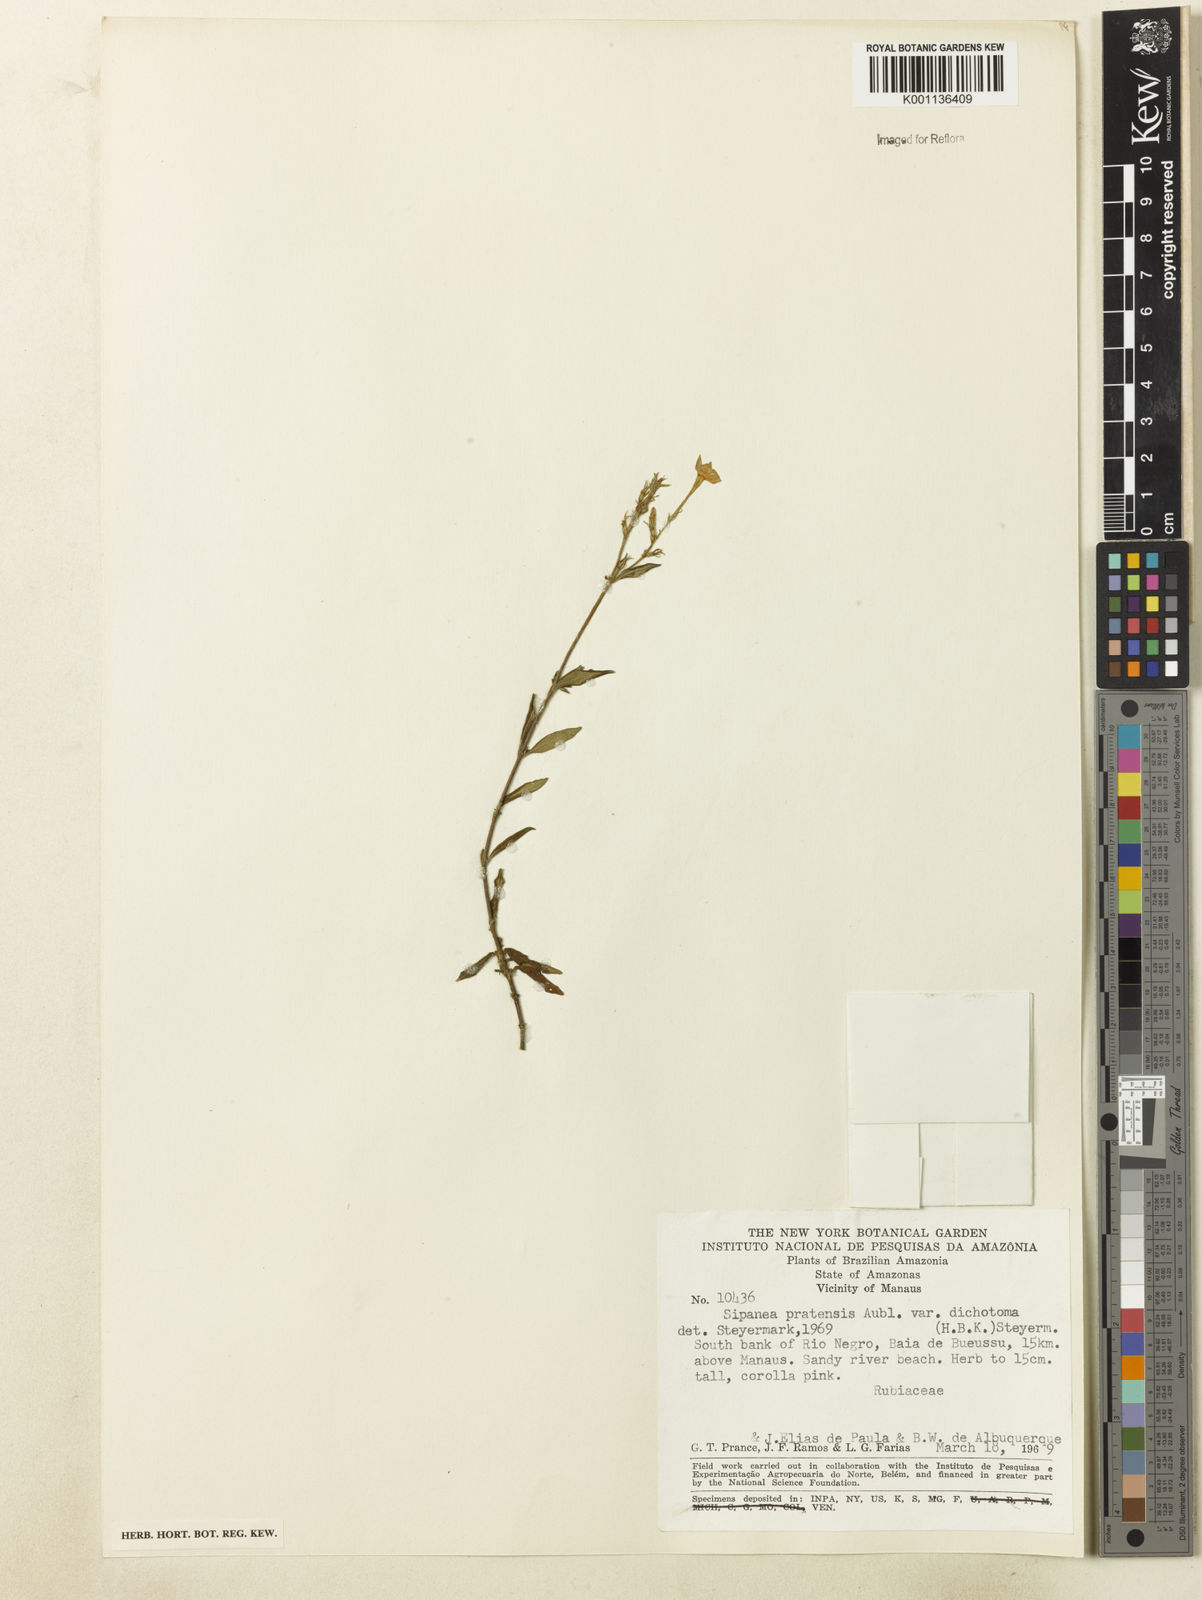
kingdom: Plantae
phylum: Tracheophyta
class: Magnoliopsida
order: Gentianales
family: Rubiaceae
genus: Sipanea
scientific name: Sipanea pratensis
